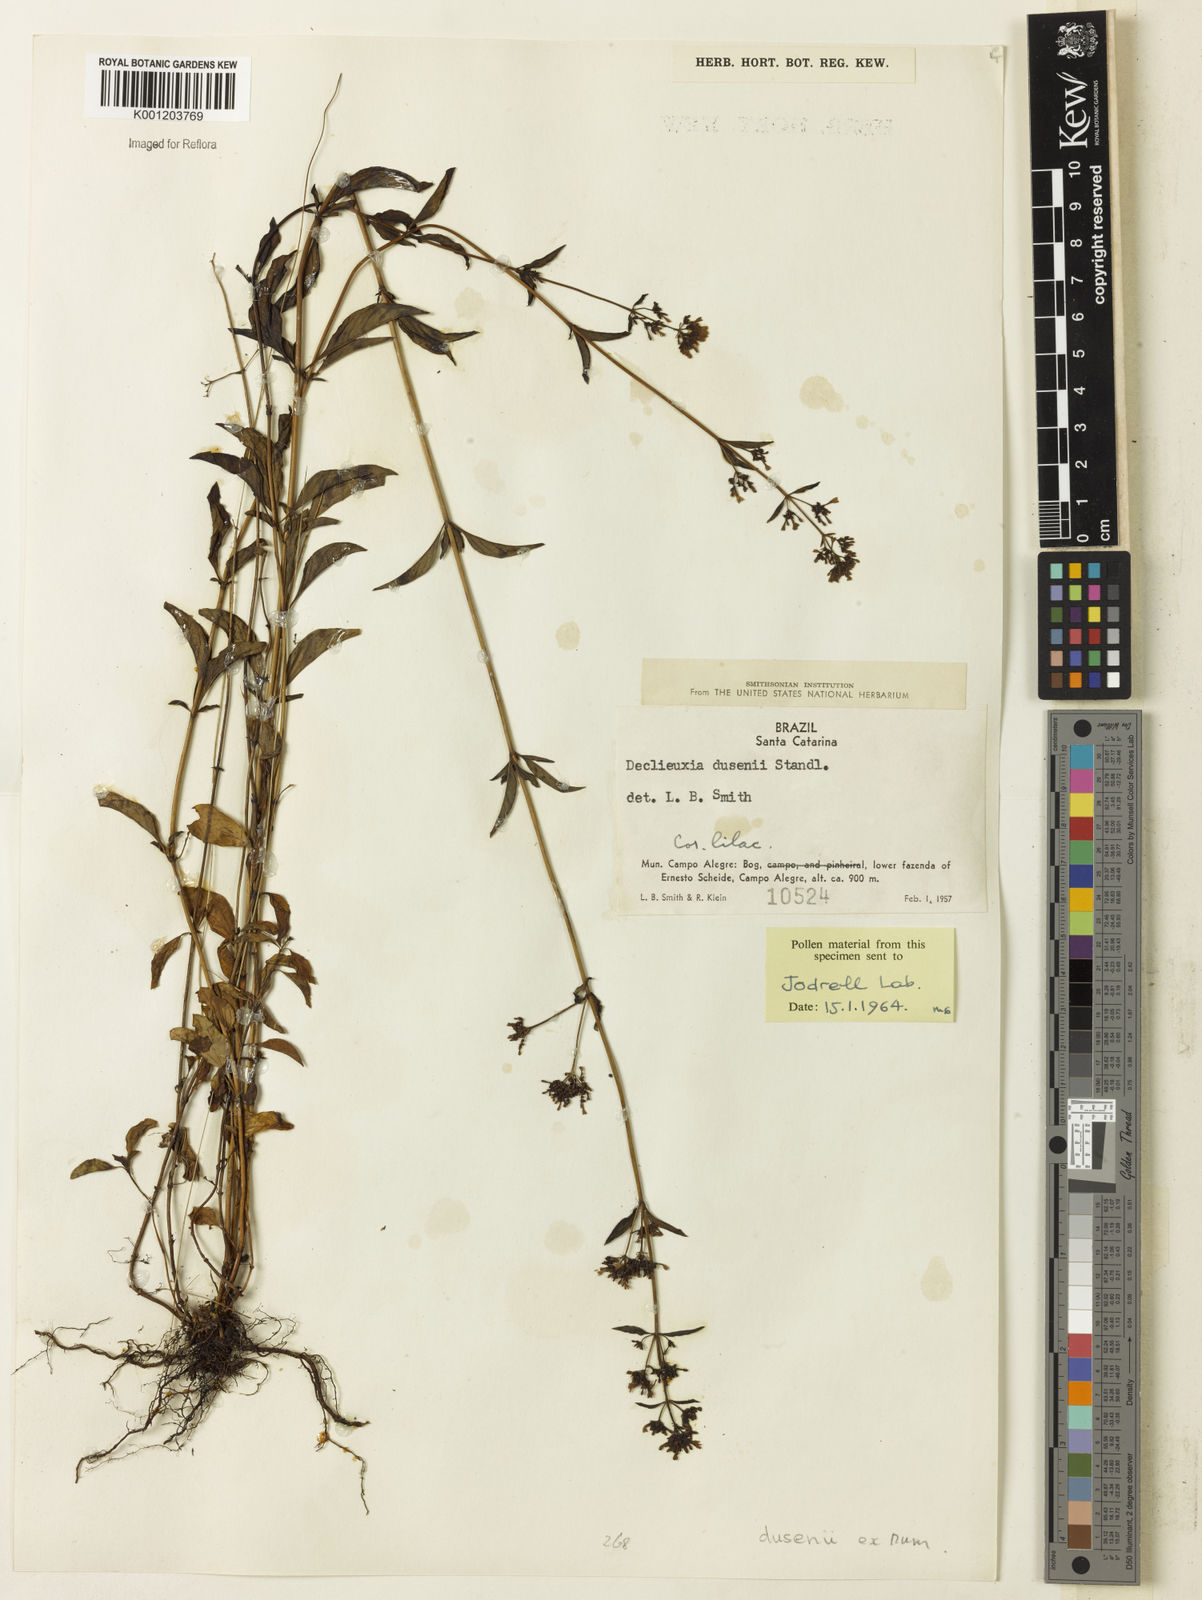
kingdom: Plantae
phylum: Tracheophyta
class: Magnoliopsida
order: Gentianales
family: Rubiaceae
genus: Declieuxia
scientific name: Declieuxia dusenii
